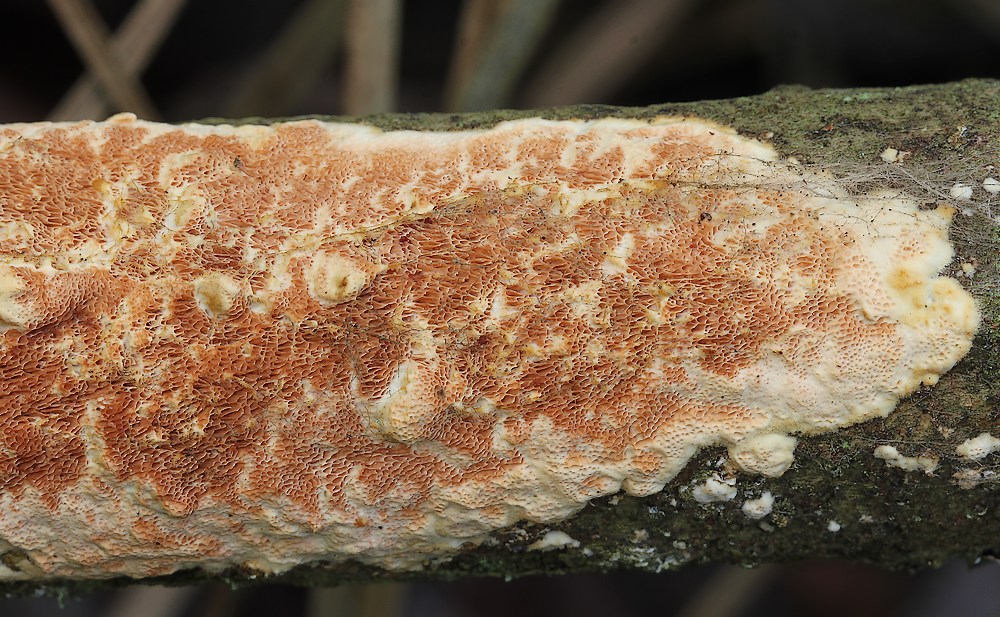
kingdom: Fungi
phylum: Basidiomycota
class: Agaricomycetes
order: Polyporales
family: Irpicaceae
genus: Resiniporus
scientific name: Resiniporus resinascens
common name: trist pastelporesvamp
